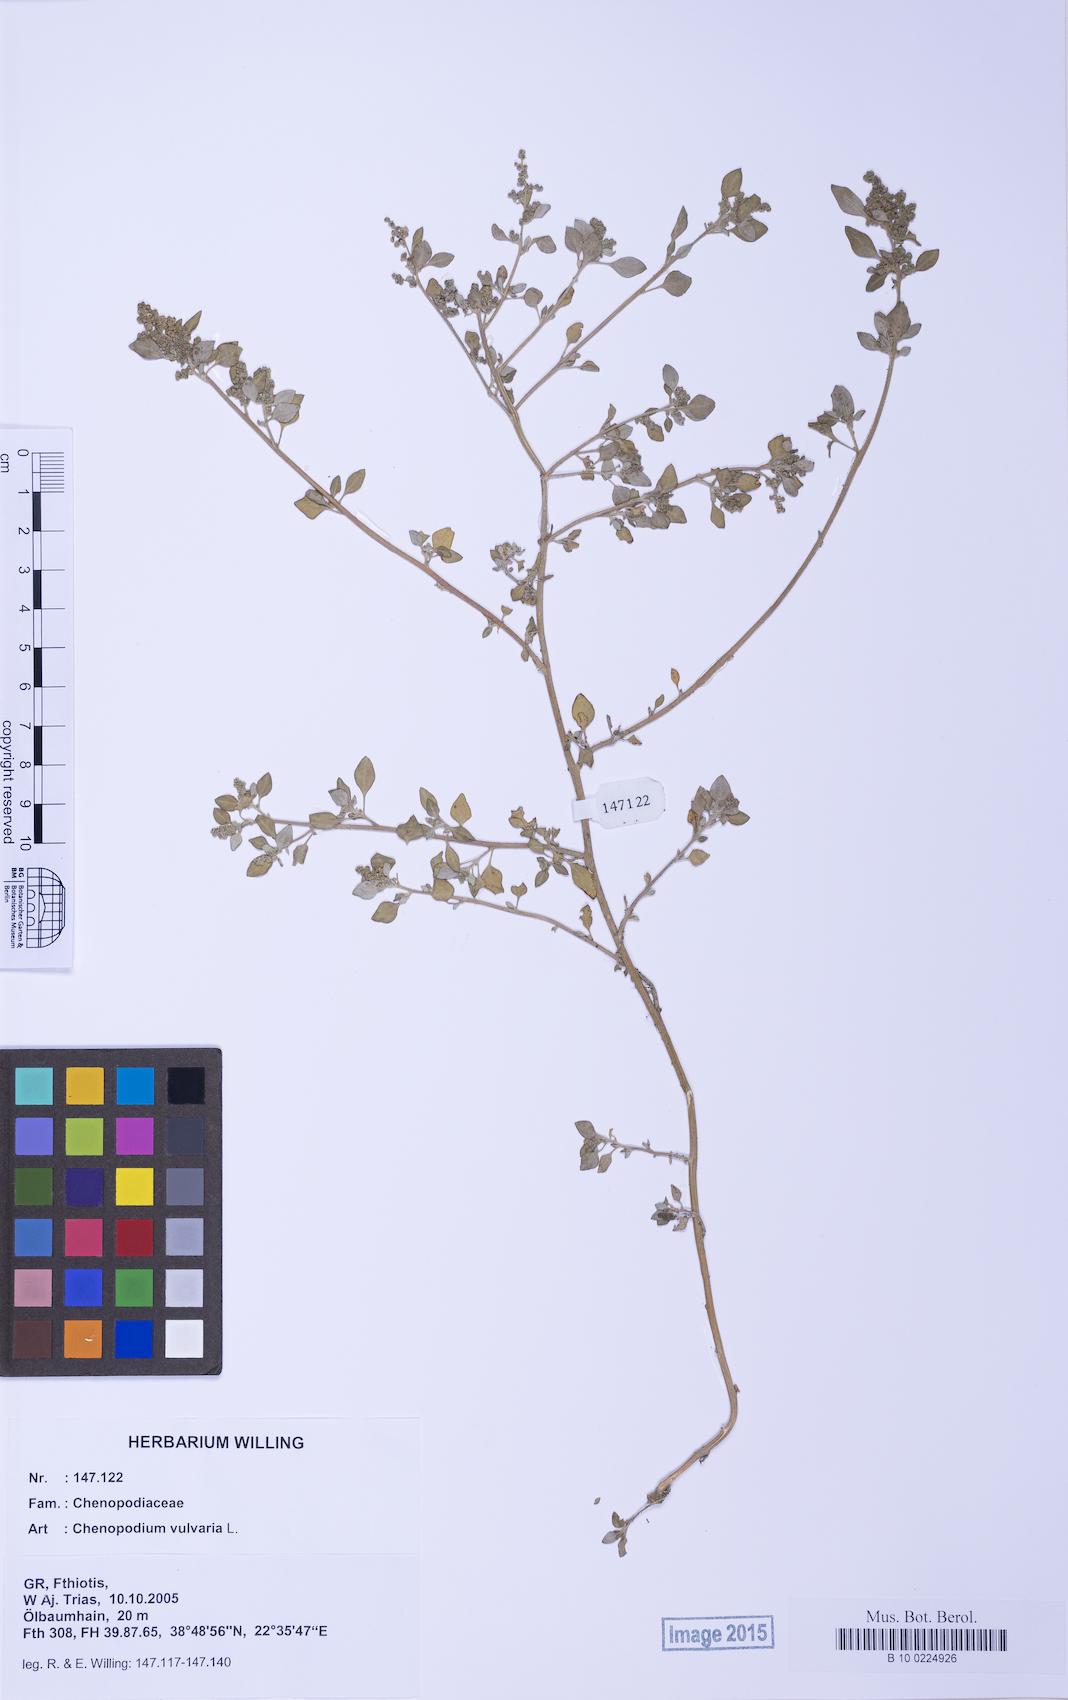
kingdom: Plantae
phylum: Tracheophyta
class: Magnoliopsida
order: Caryophyllales
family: Amaranthaceae
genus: Chenopodium
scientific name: Chenopodium vulvaria
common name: Stinking goosefoot
